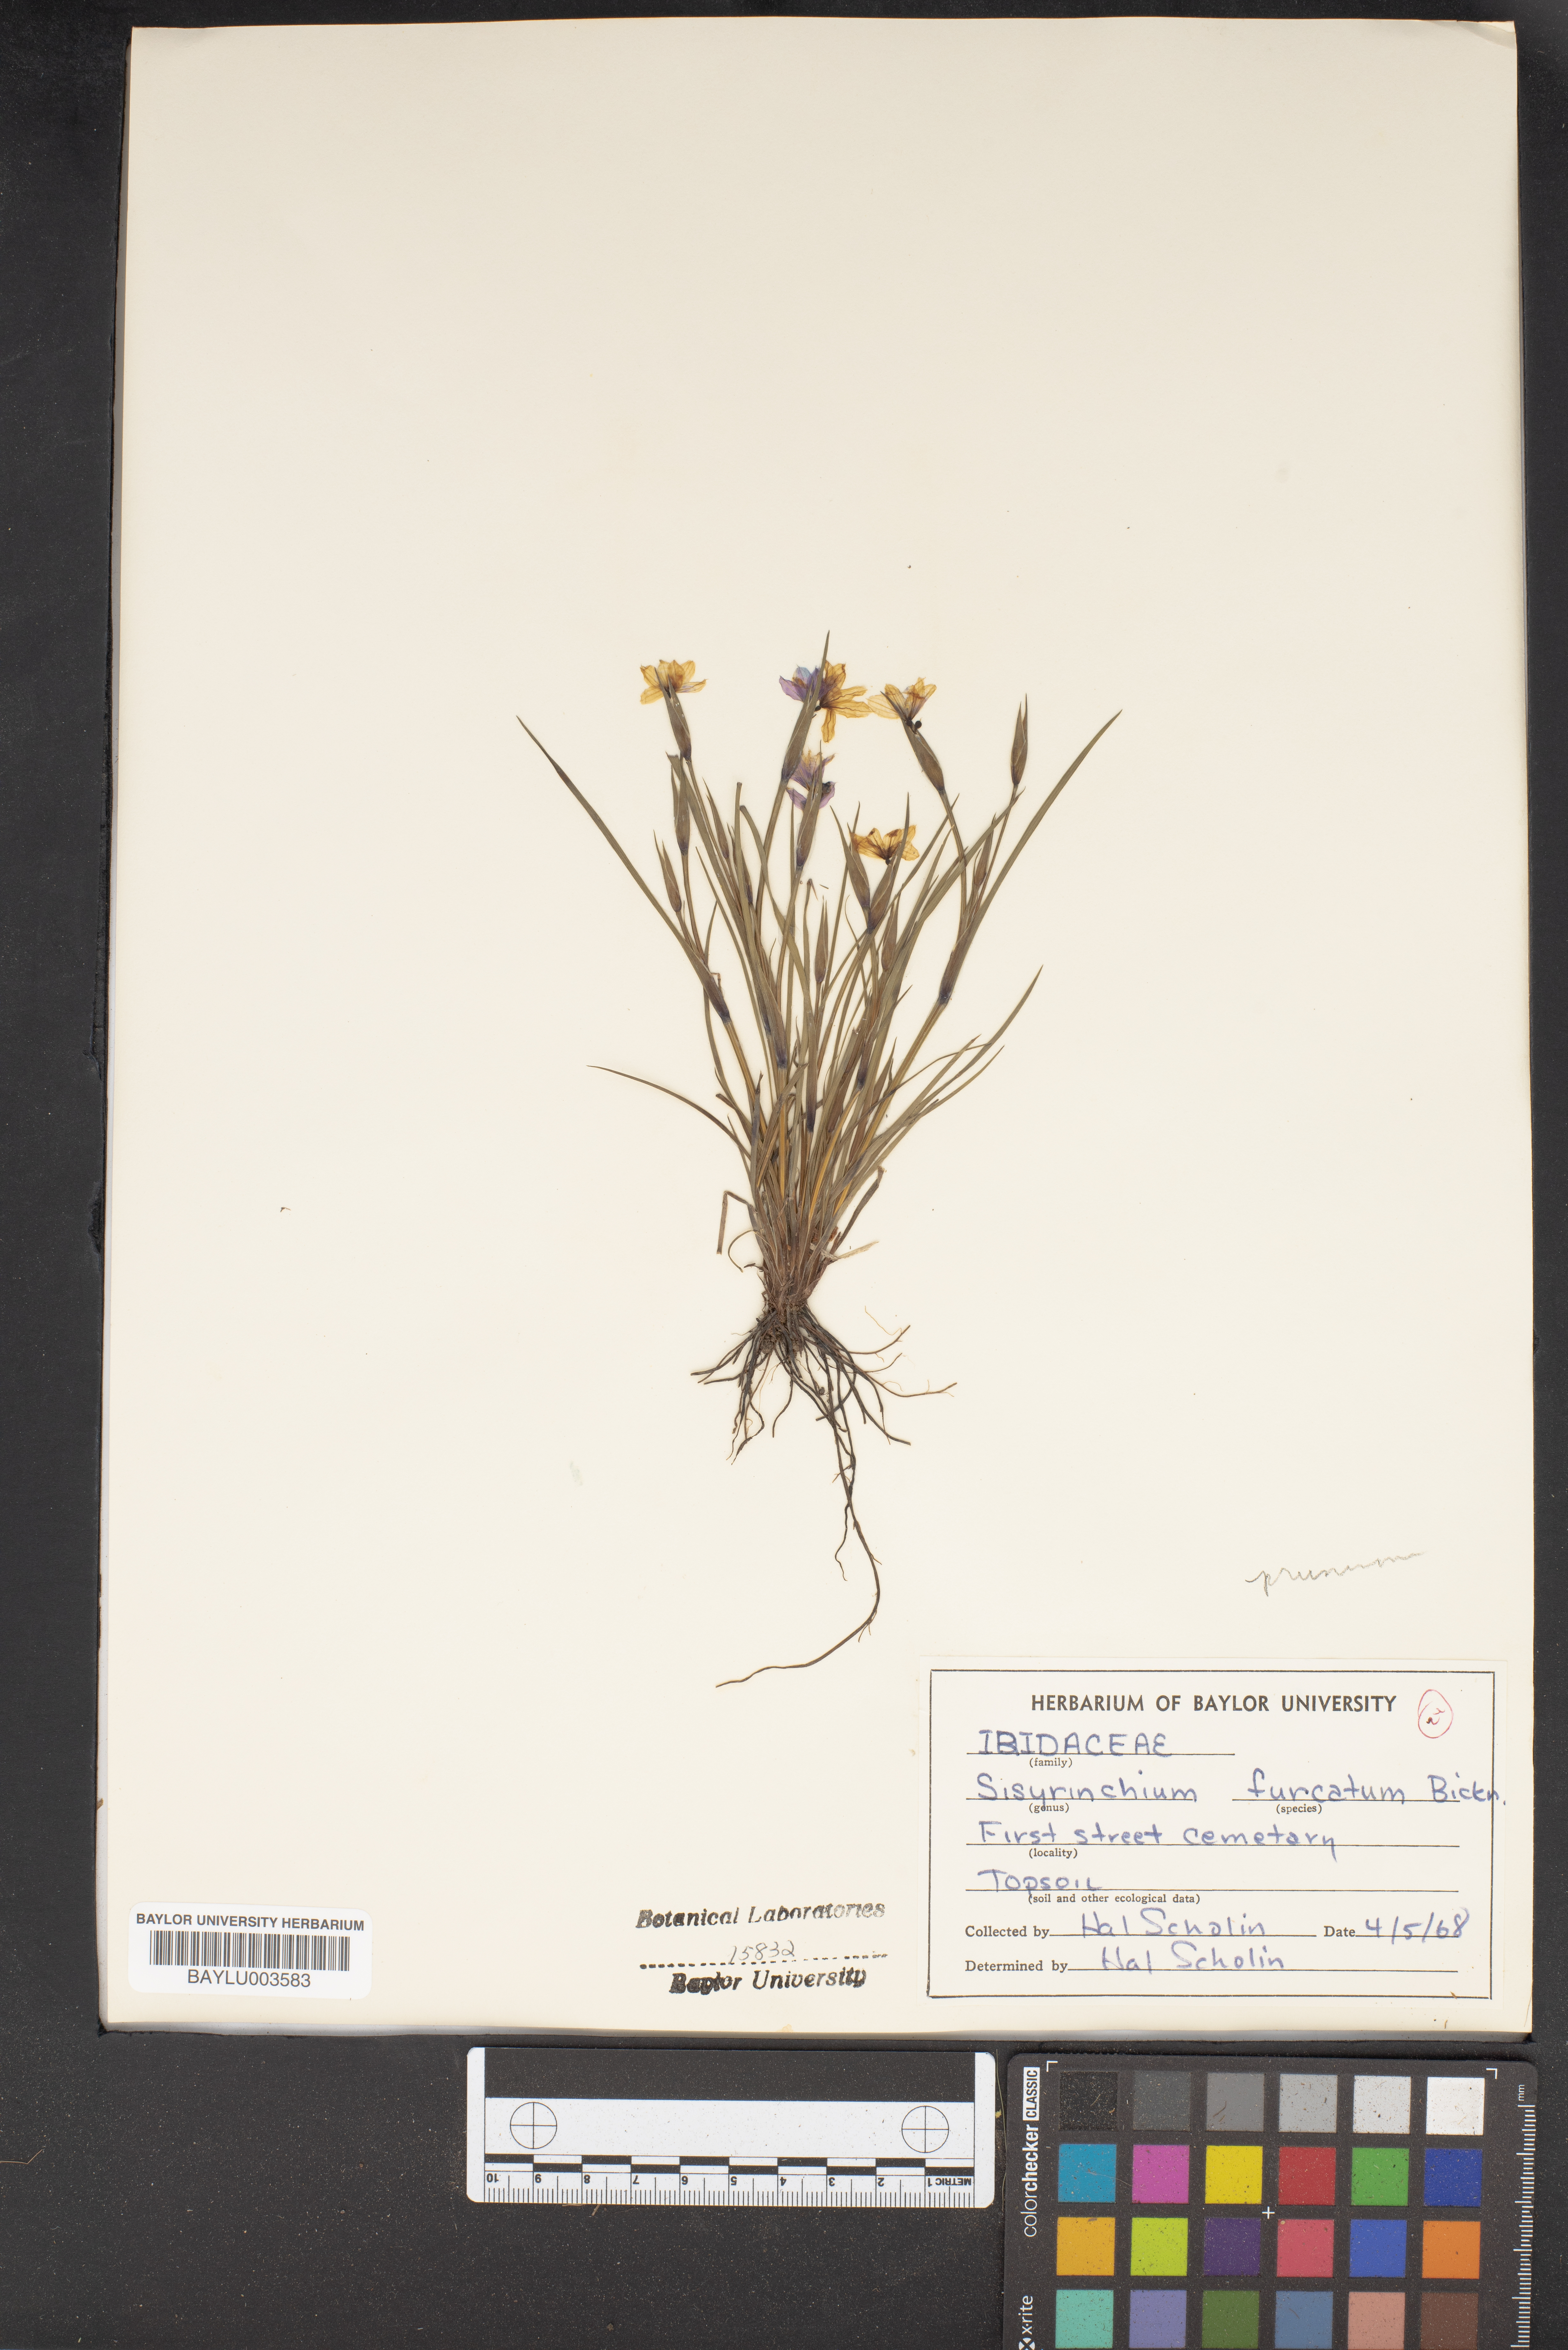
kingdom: Plantae
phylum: Tracheophyta
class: Liliopsida
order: Asparagales
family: Iridaceae
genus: Sisyrinchium
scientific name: Sisyrinchium fuscatum
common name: Coastal plain blue-eyed-grass
